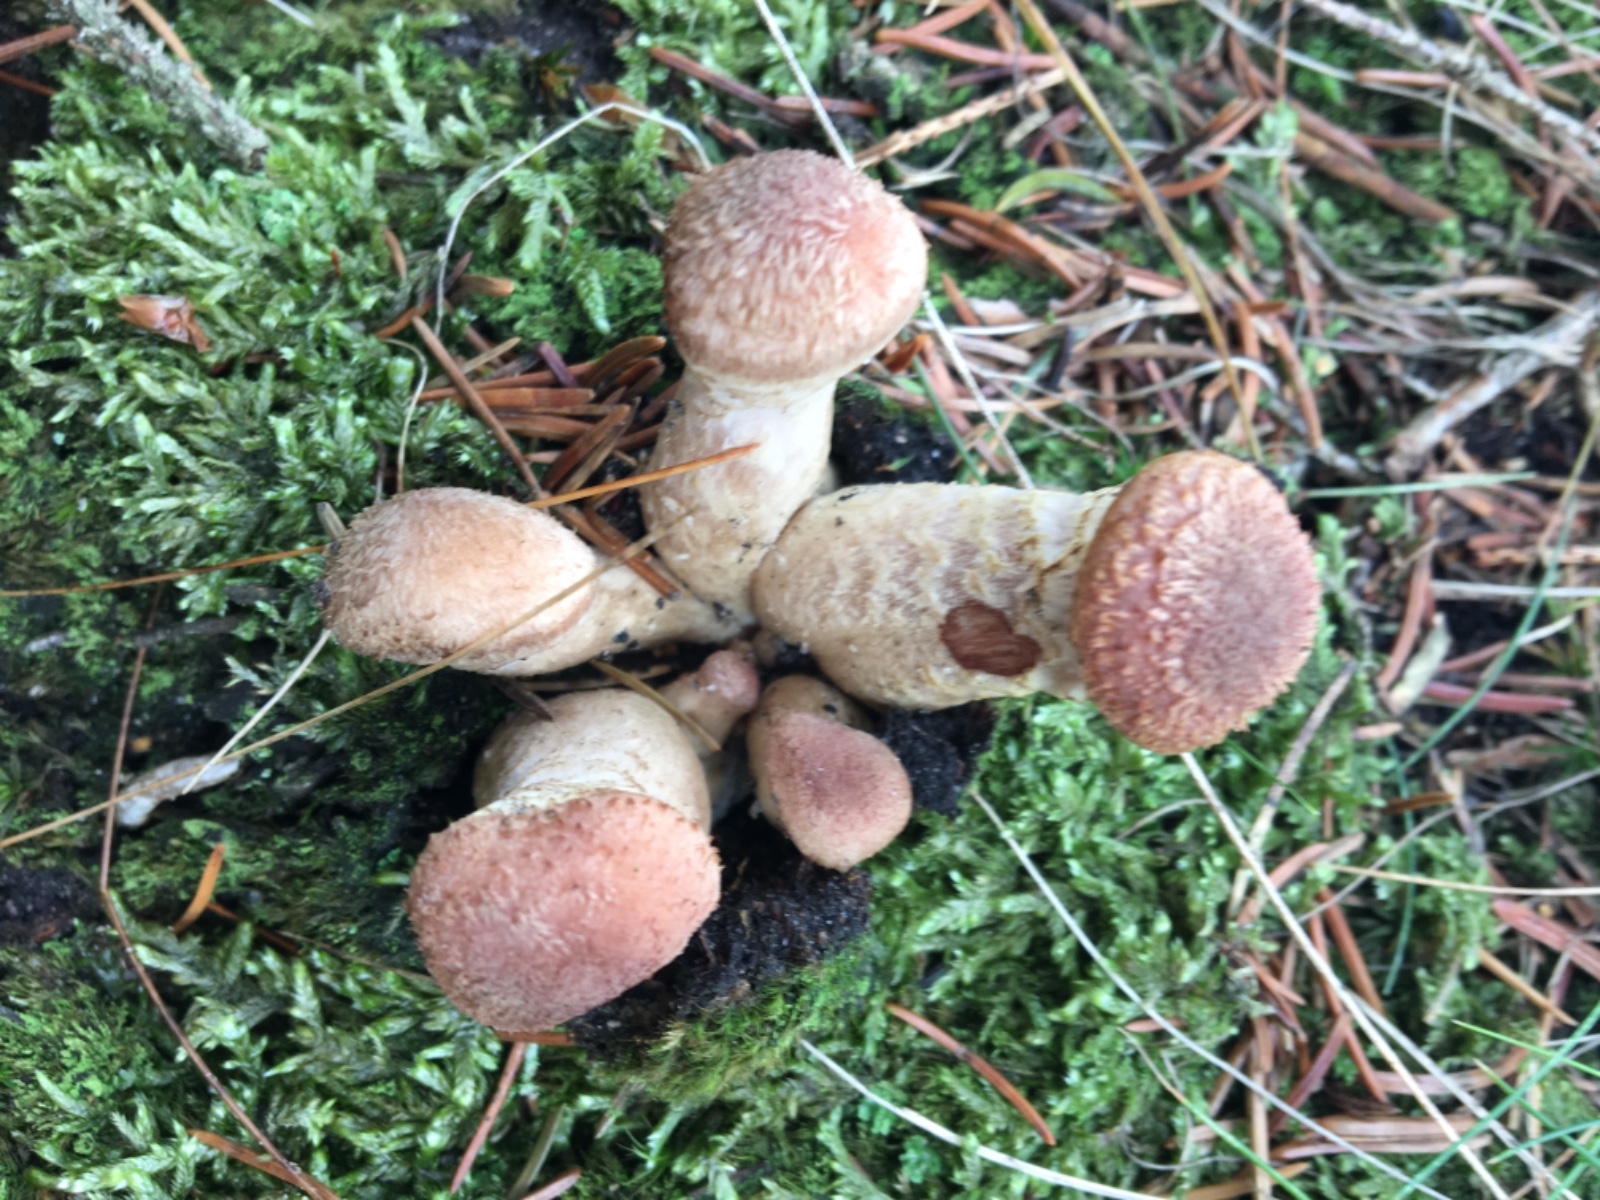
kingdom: Fungi
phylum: Basidiomycota
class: Agaricomycetes
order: Agaricales
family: Physalacriaceae
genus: Armillaria
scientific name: Armillaria
